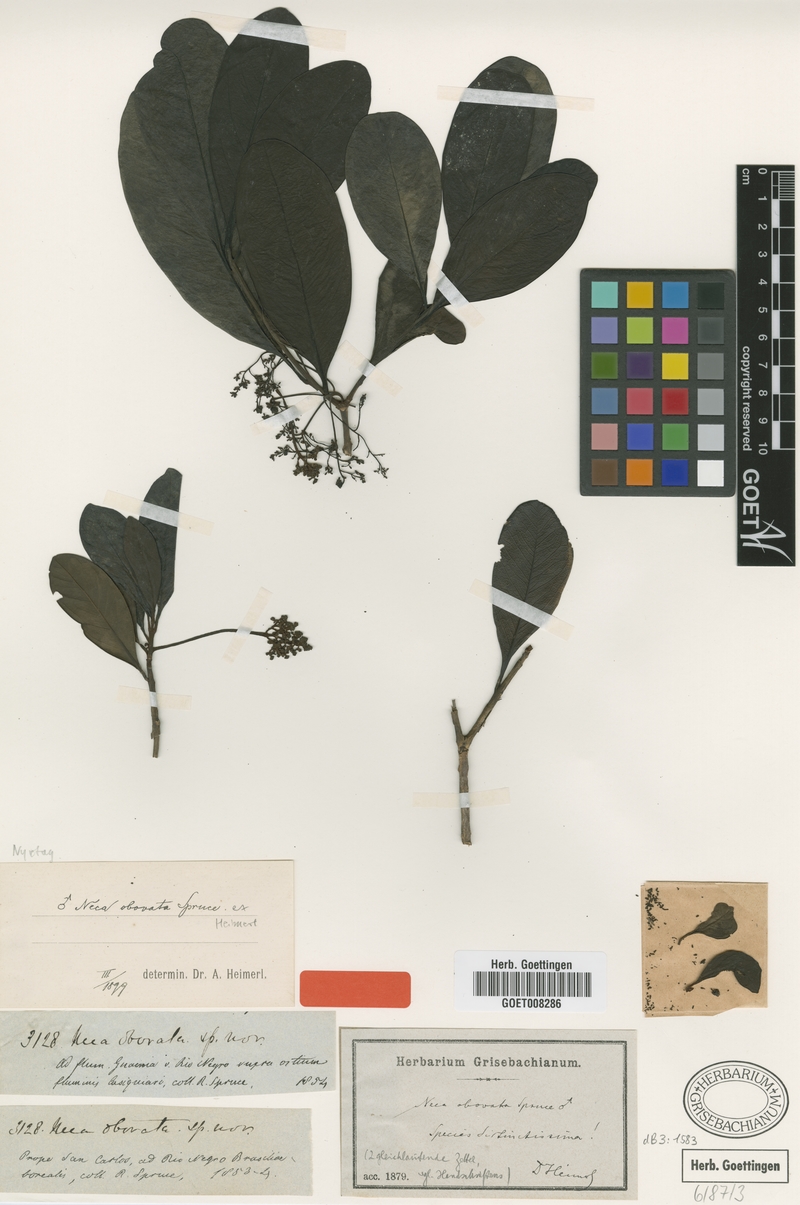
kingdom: Plantae
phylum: Tracheophyta
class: Magnoliopsida
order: Caryophyllales
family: Nyctaginaceae
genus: Neea
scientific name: Neea obovata
